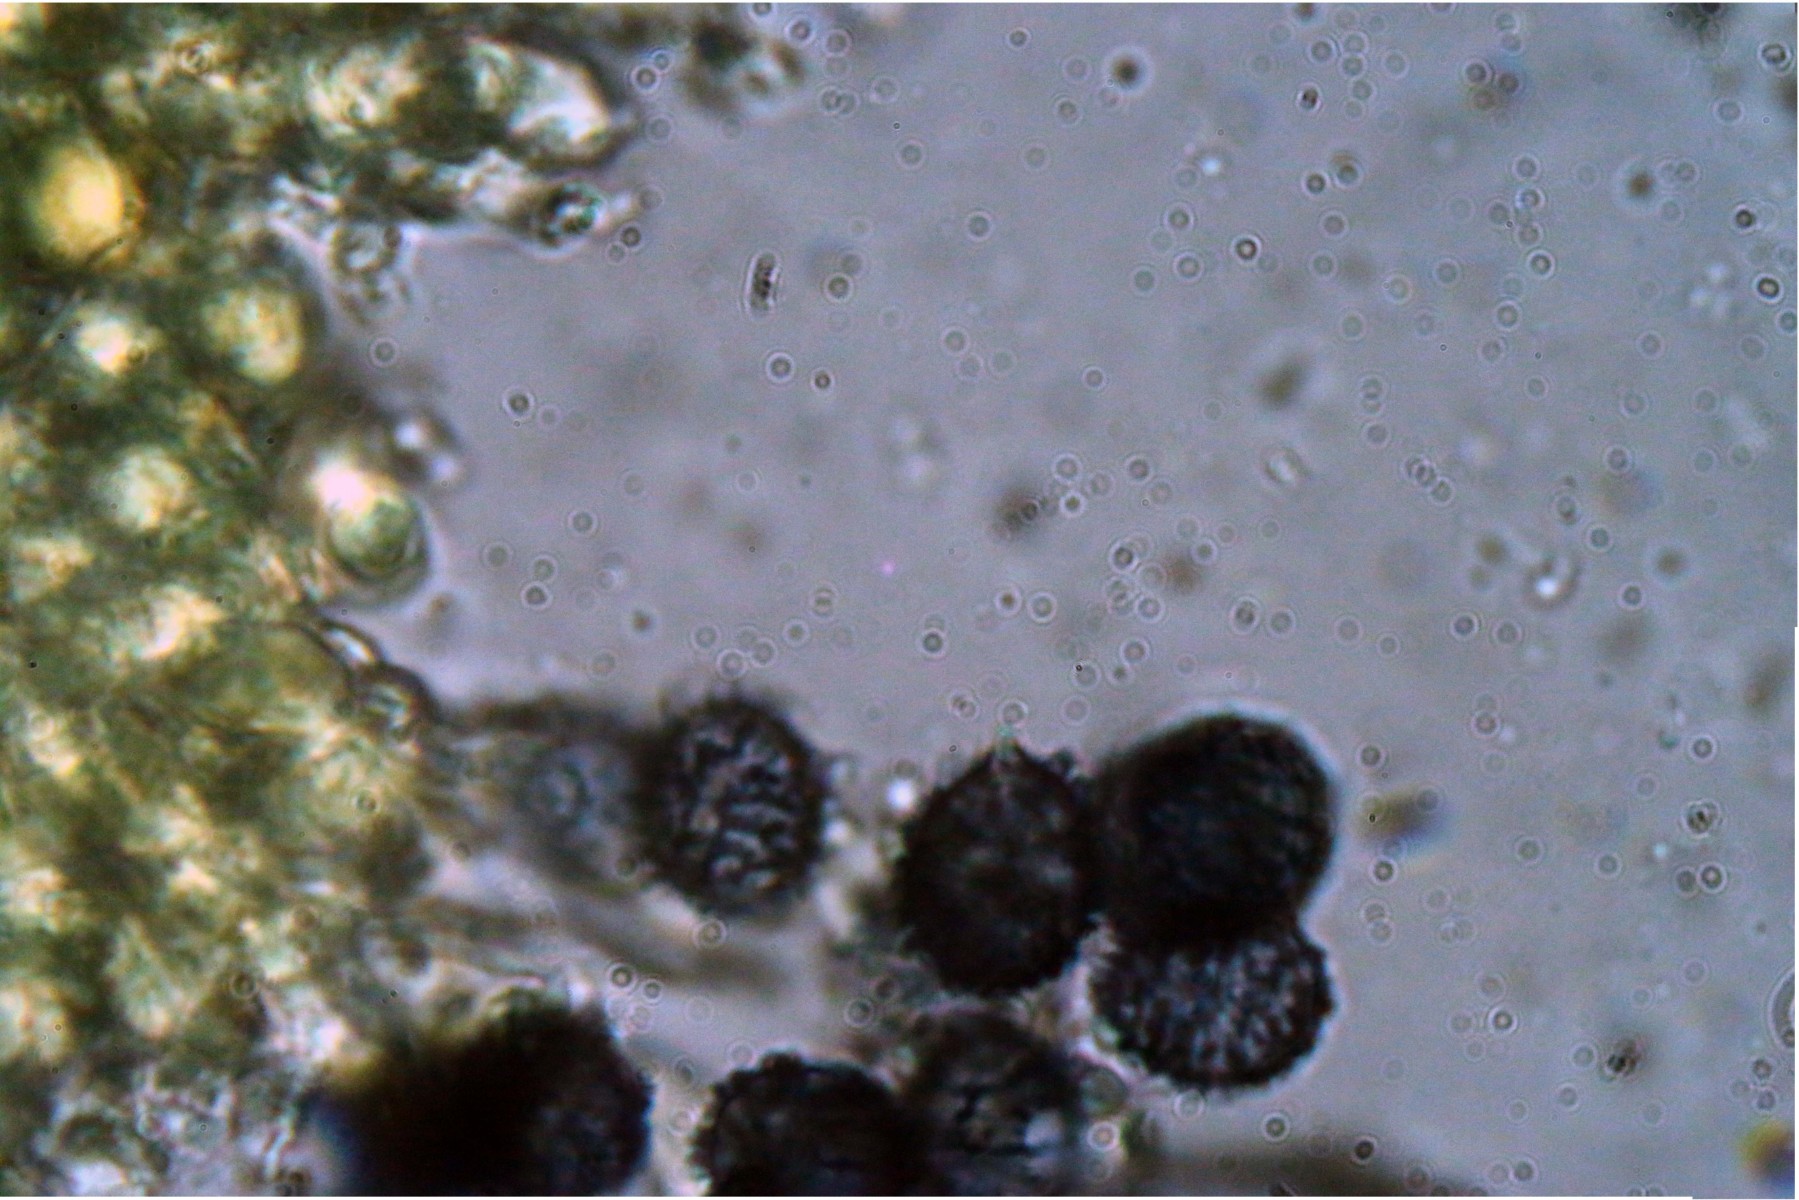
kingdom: Fungi
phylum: Basidiomycota
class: Agaricomycetes
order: Russulales
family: Russulaceae
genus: Lactarius
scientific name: Lactarius acerrimus
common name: brændende mælkehat
